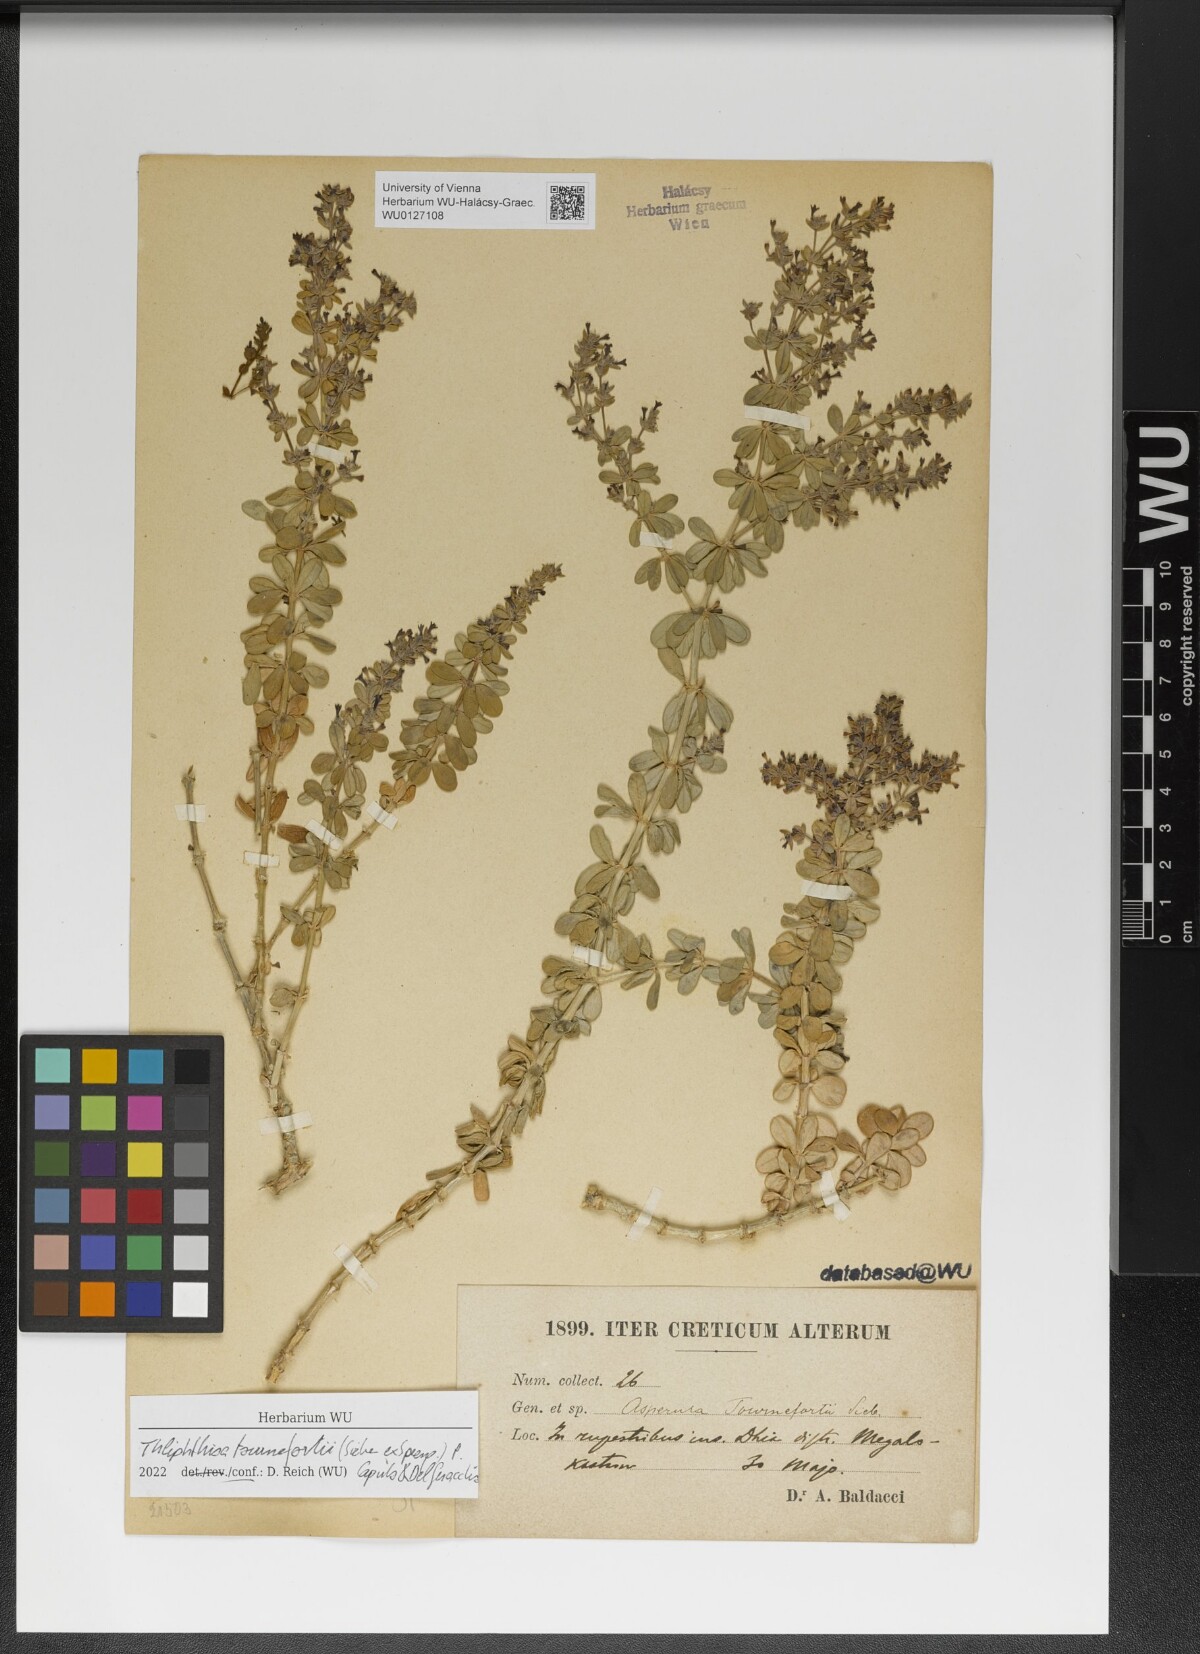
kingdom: Plantae
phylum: Tracheophyta
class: Magnoliopsida
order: Gentianales
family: Rubiaceae
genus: Thliphthisa
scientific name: Thliphthisa tournefortii
